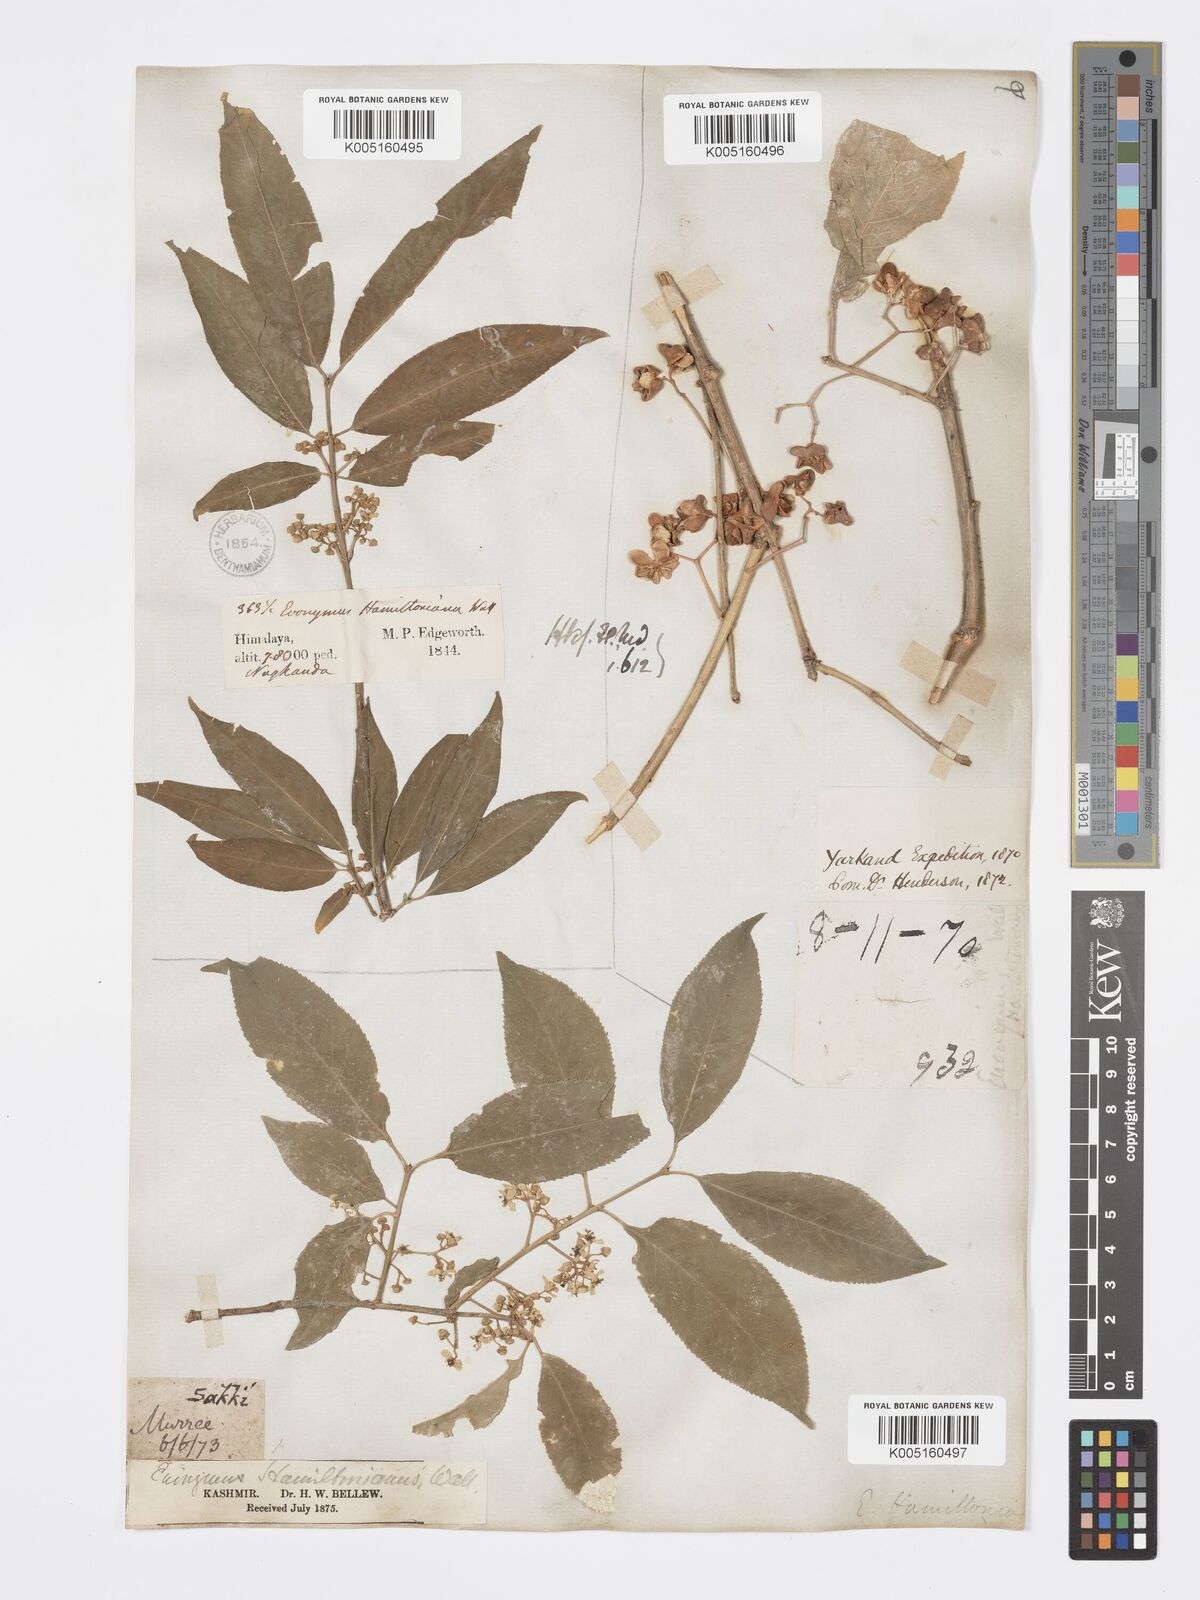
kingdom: Plantae
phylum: Tracheophyta
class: Magnoliopsida
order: Celastrales
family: Celastraceae
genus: Euonymus
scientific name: Euonymus
